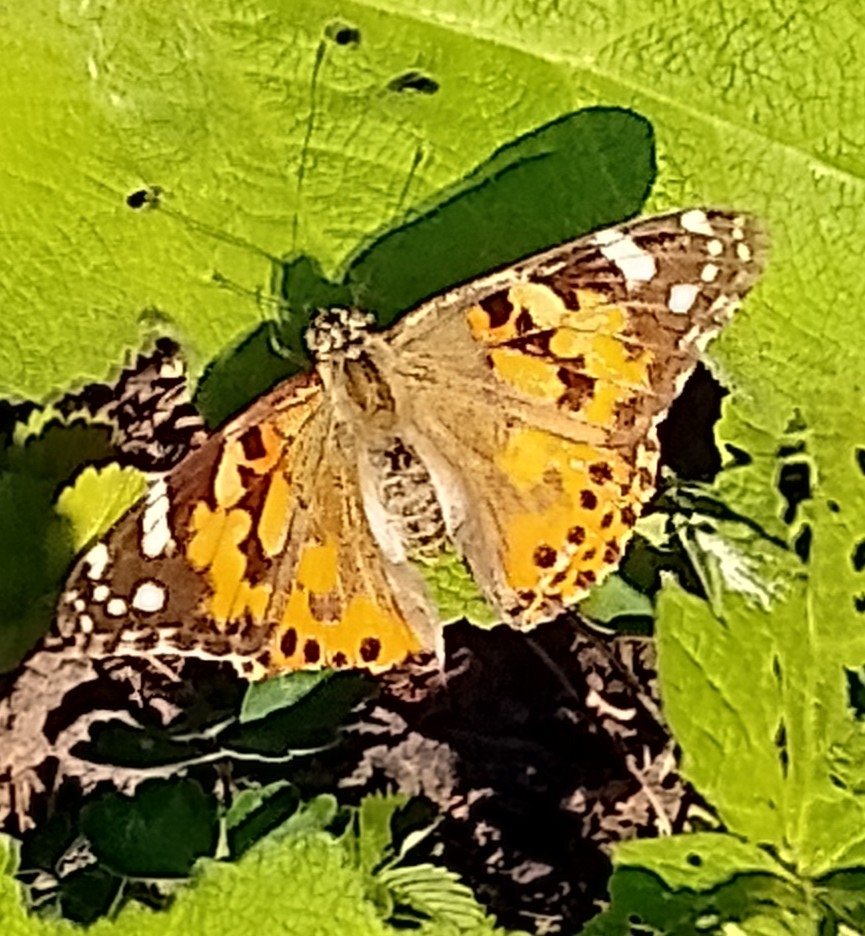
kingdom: Animalia
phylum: Arthropoda
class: Insecta
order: Lepidoptera
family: Nymphalidae
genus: Vanessa
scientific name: Vanessa cardui
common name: Tidselsommerfugl
